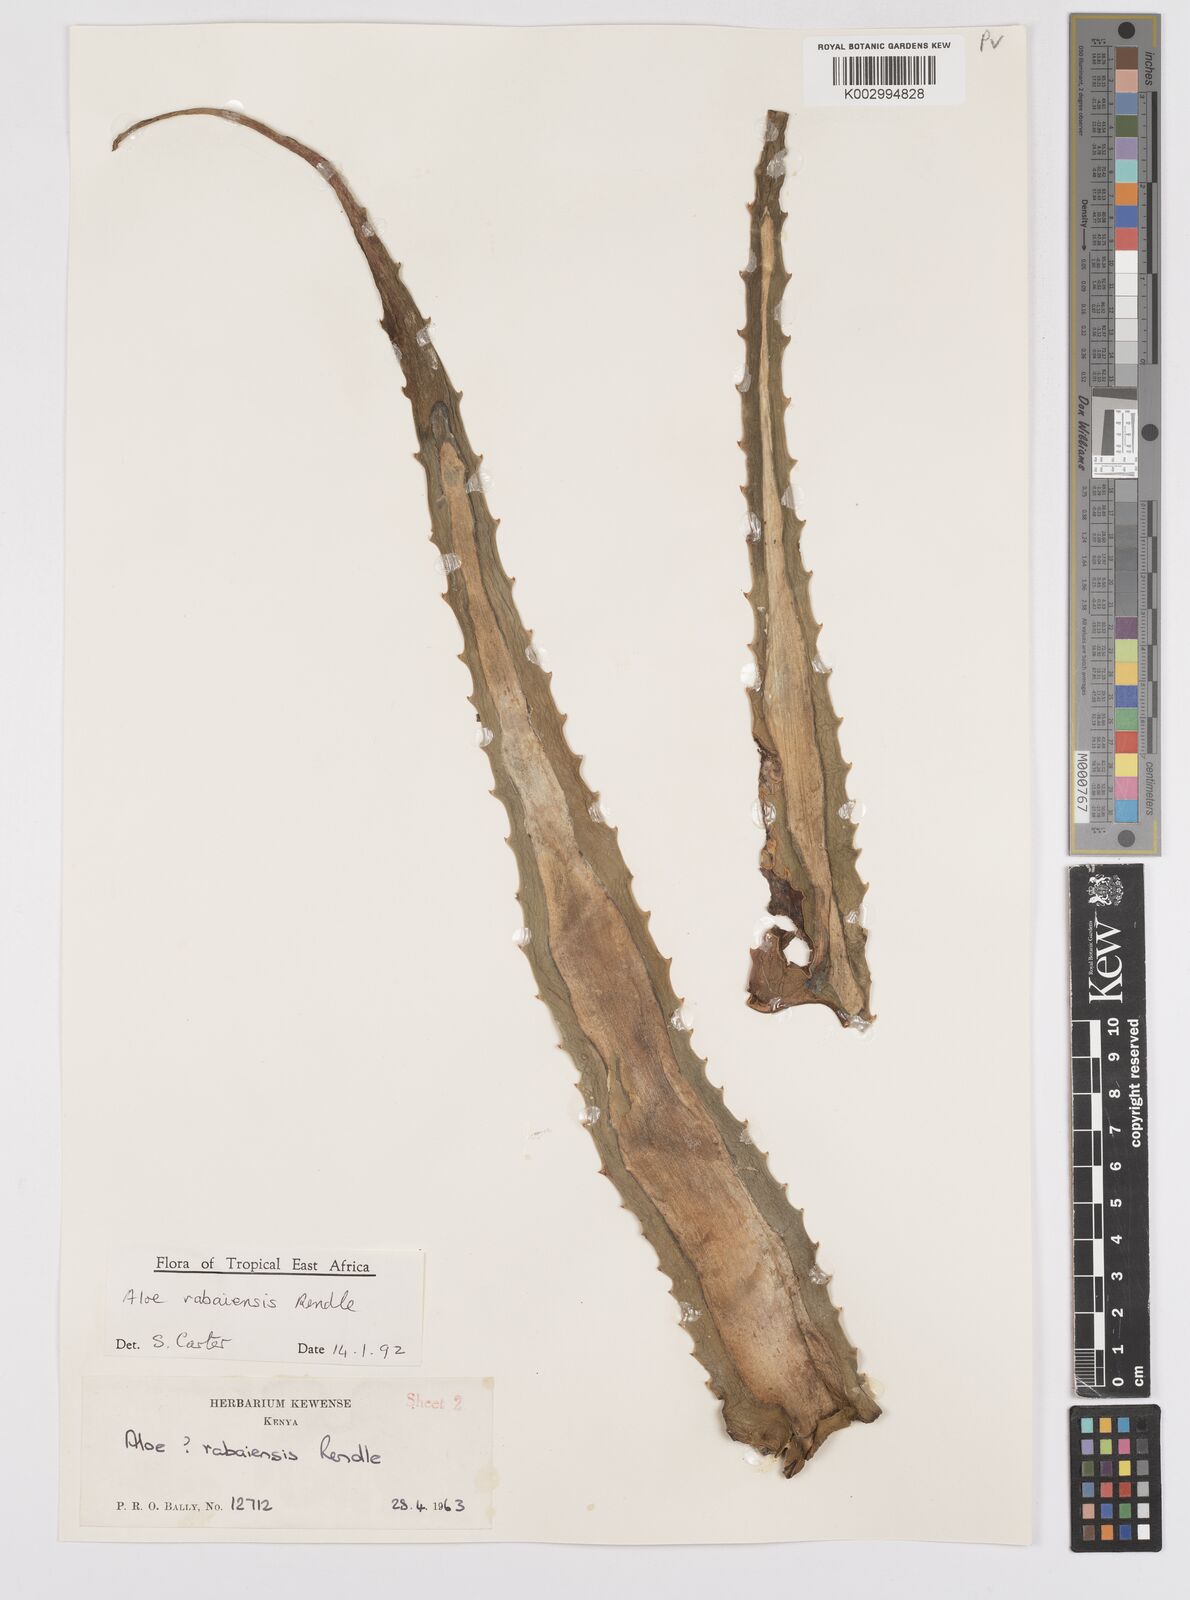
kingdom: Plantae
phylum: Tracheophyta
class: Liliopsida
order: Asparagales
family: Asphodelaceae
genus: Aloe
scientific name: Aloe rabaiensis
